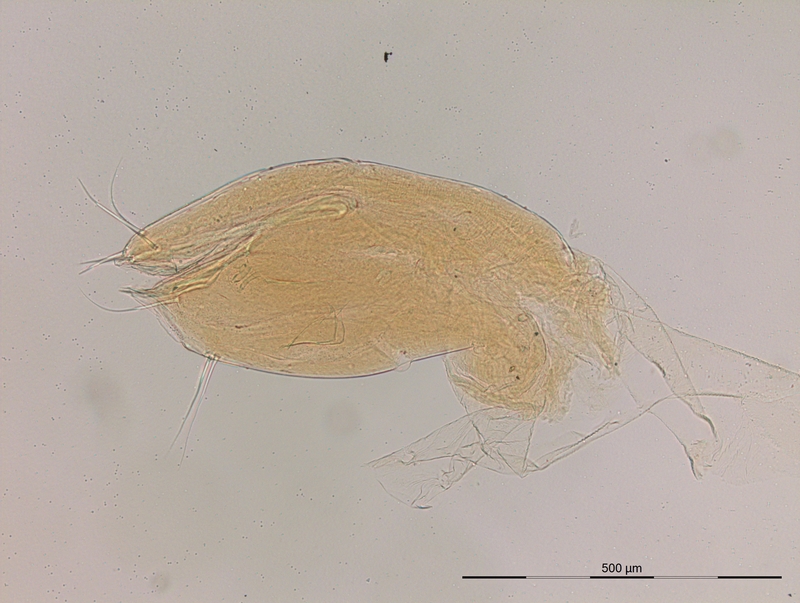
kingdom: Animalia
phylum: Arthropoda
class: Diplopoda
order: Julida
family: Nemasomatidae
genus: Orinisobates
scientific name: Orinisobates gracilis
